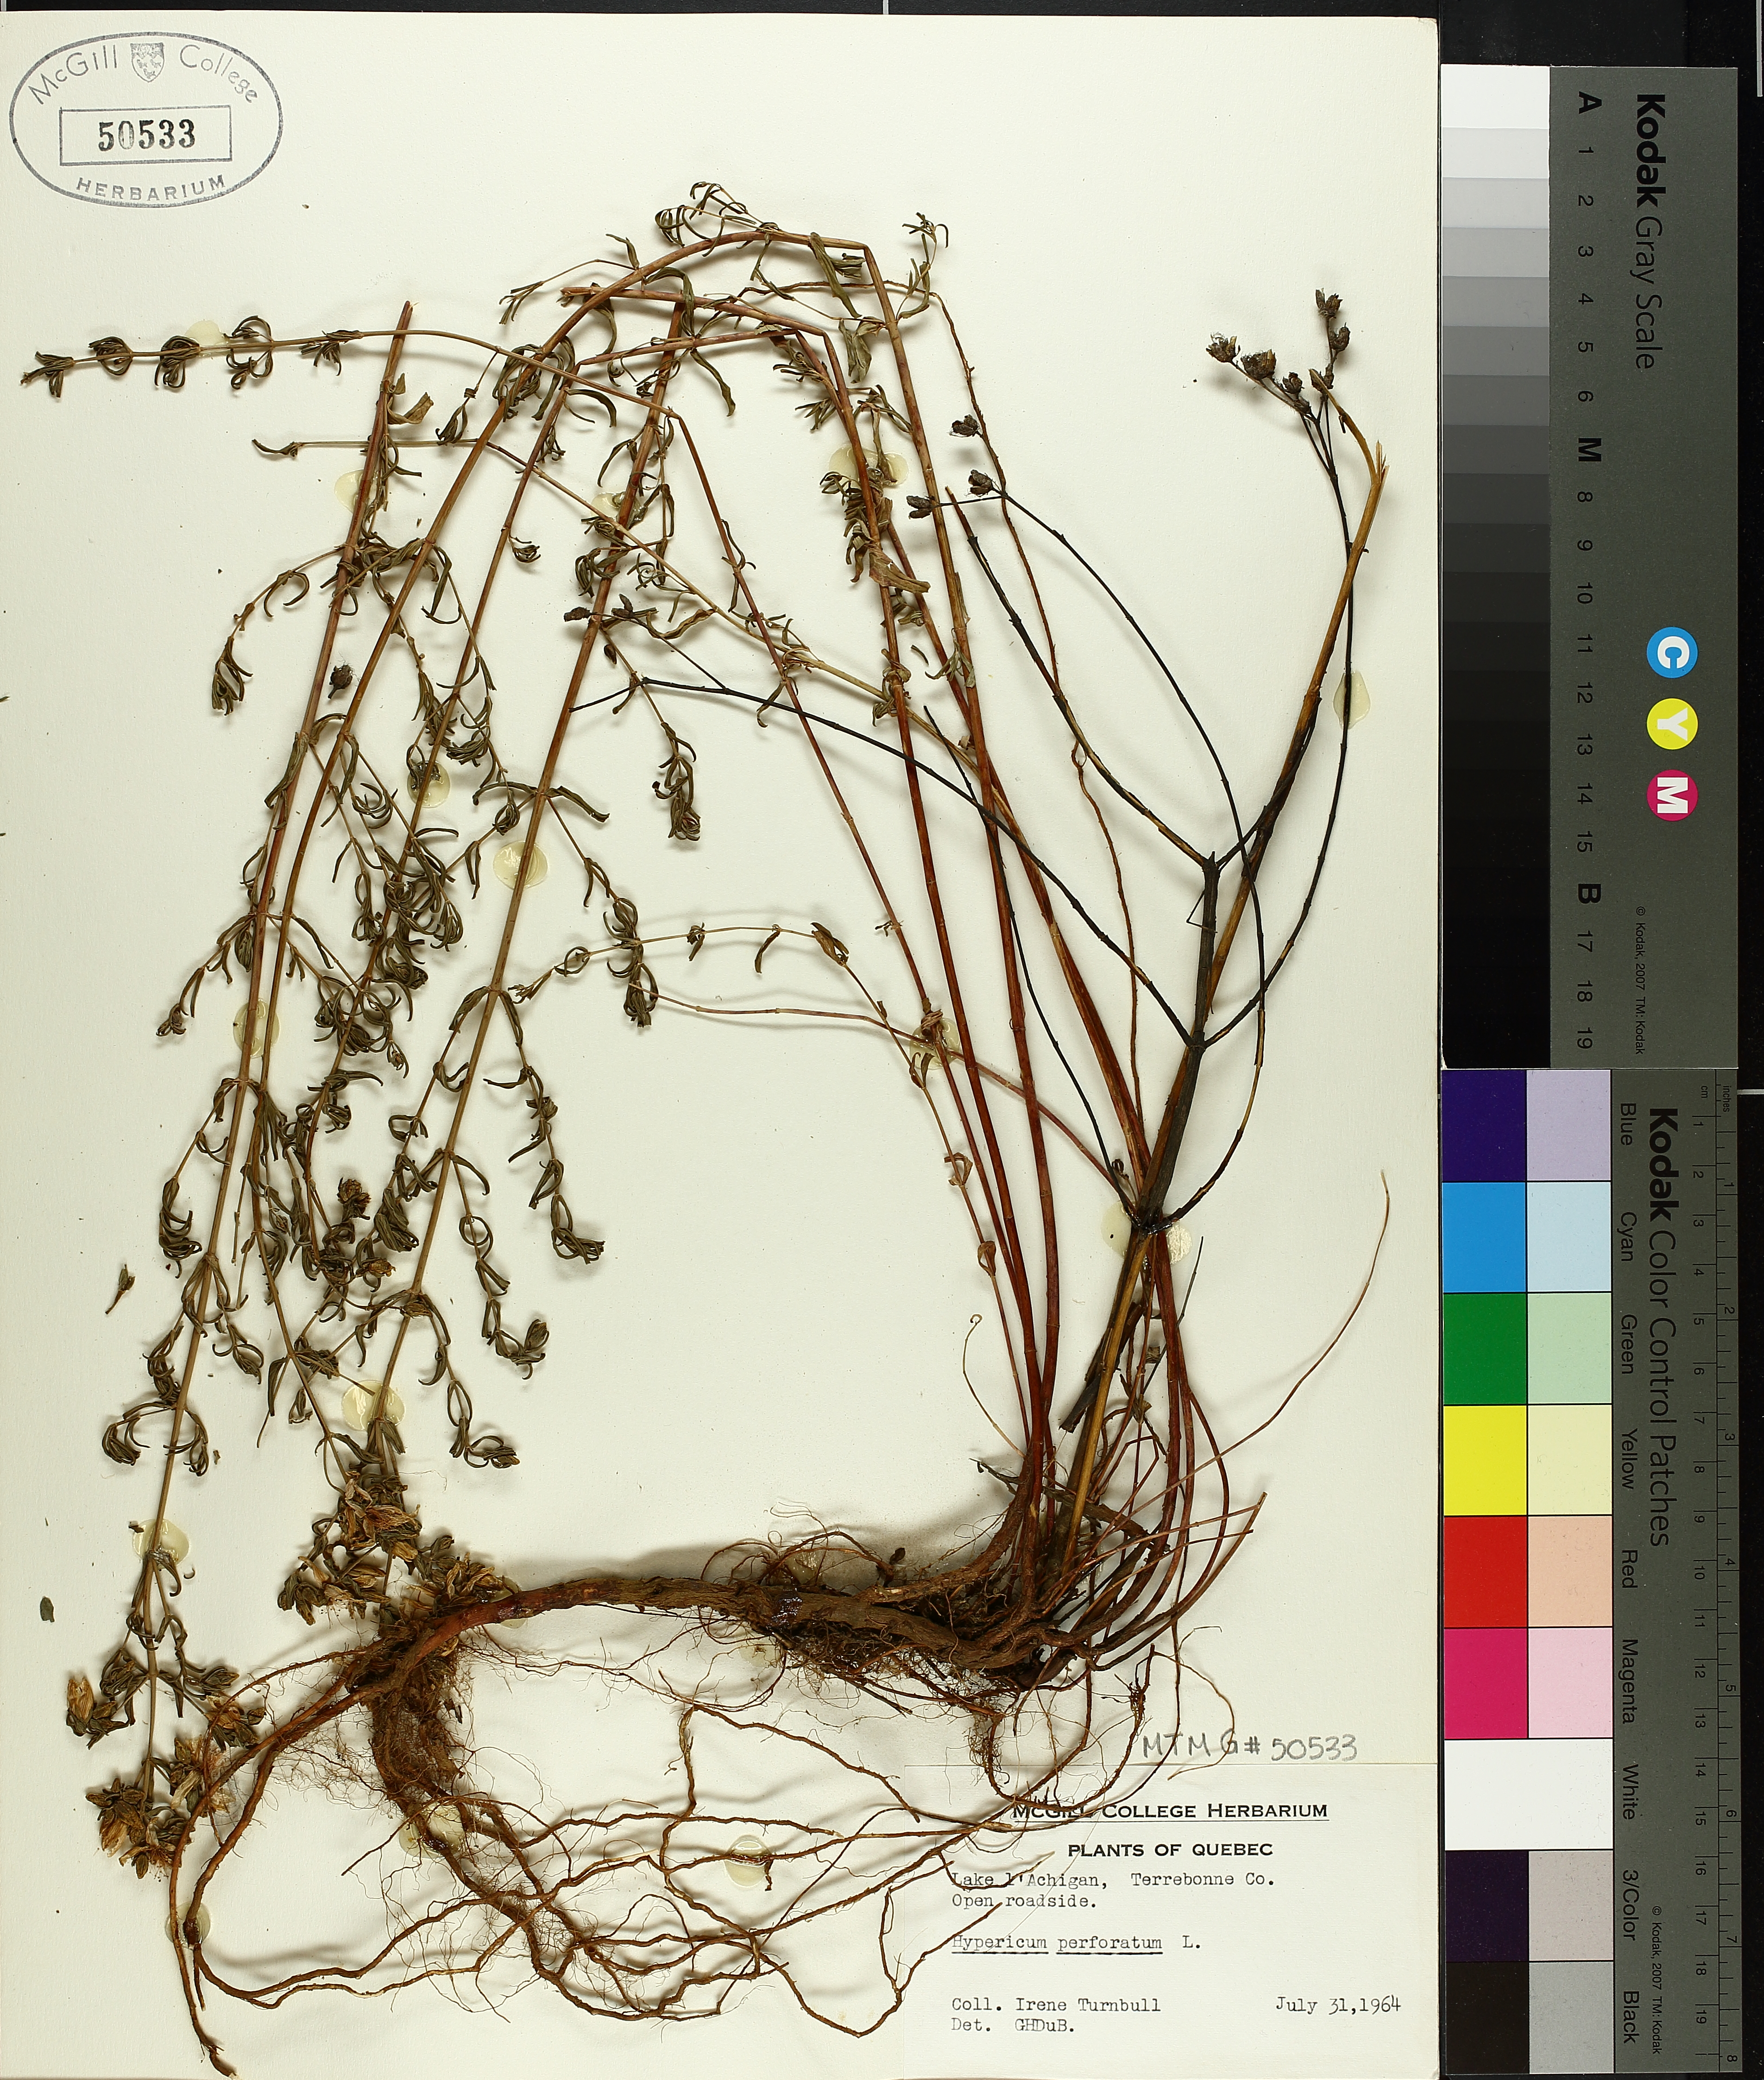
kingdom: Plantae
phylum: Tracheophyta
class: Magnoliopsida
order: Malpighiales
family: Hypericaceae
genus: Hypericum
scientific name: Hypericum perforatum
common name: Common st. johnswort
